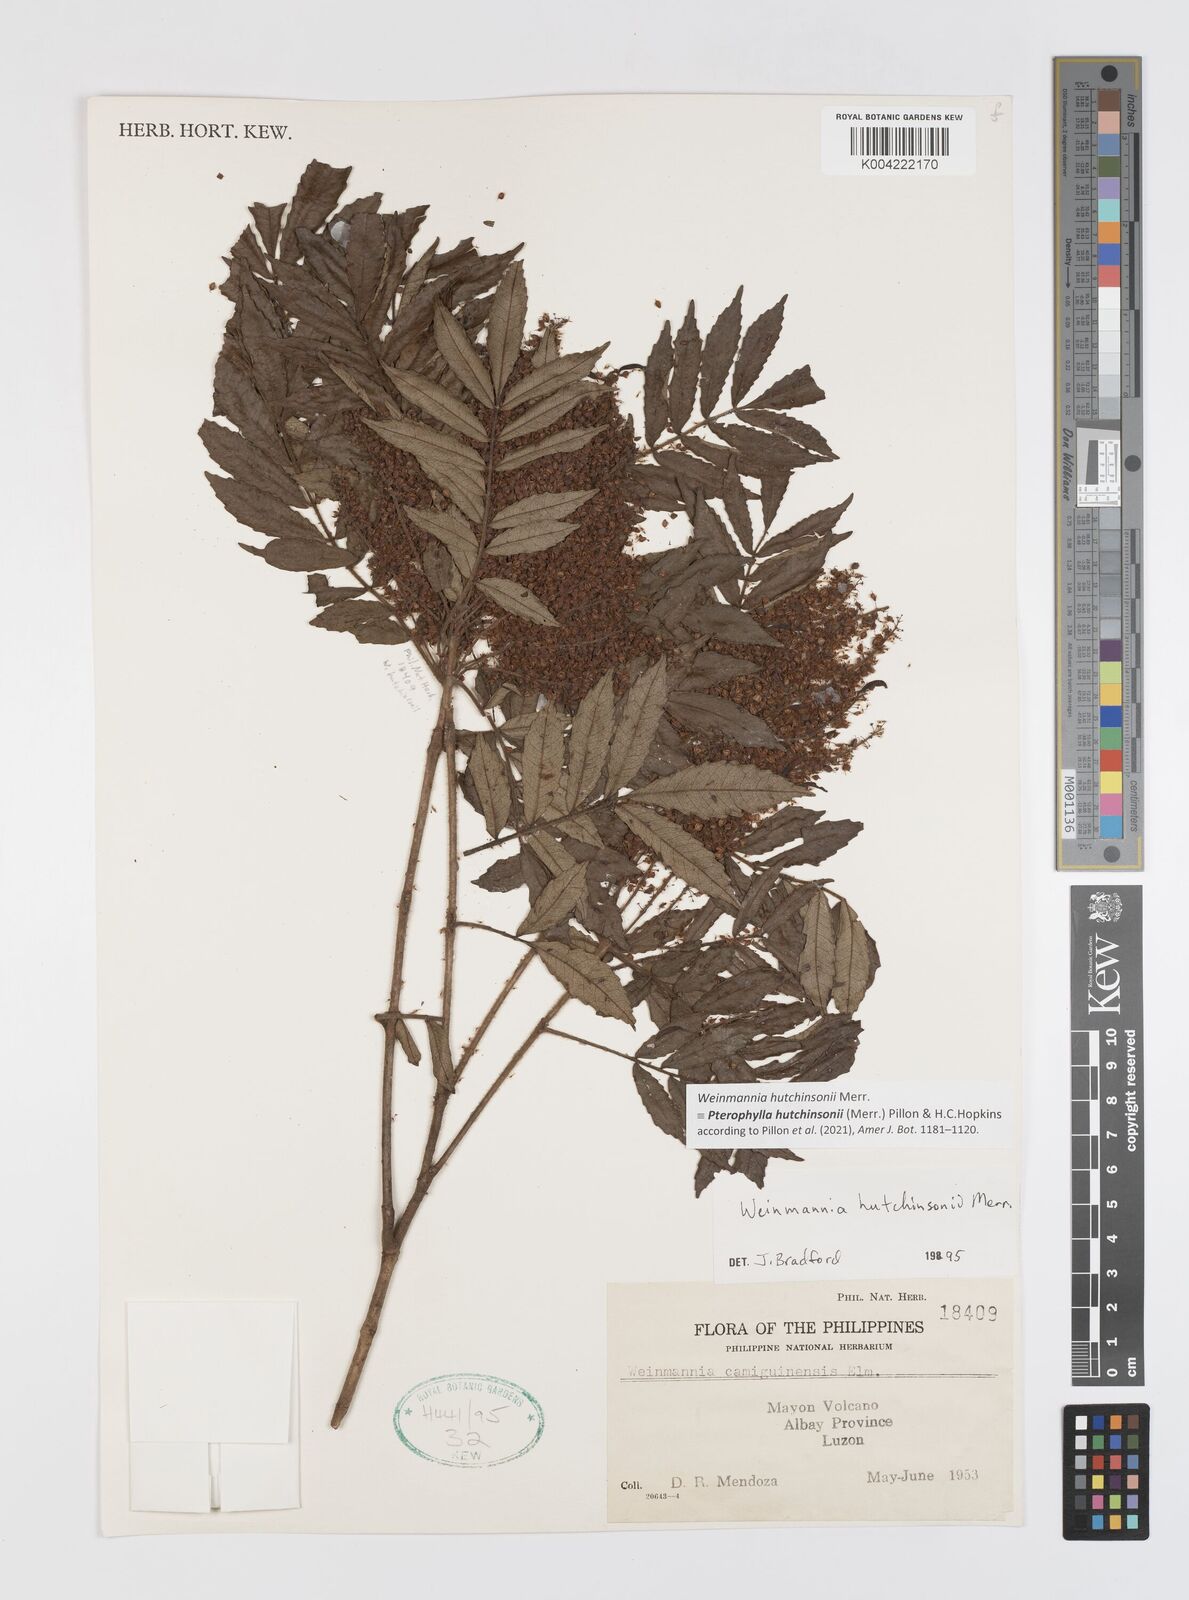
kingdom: Plantae
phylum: Tracheophyta
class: Magnoliopsida
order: Oxalidales
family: Cunoniaceae
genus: Pterophylla
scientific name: Pterophylla hutchinsonii
